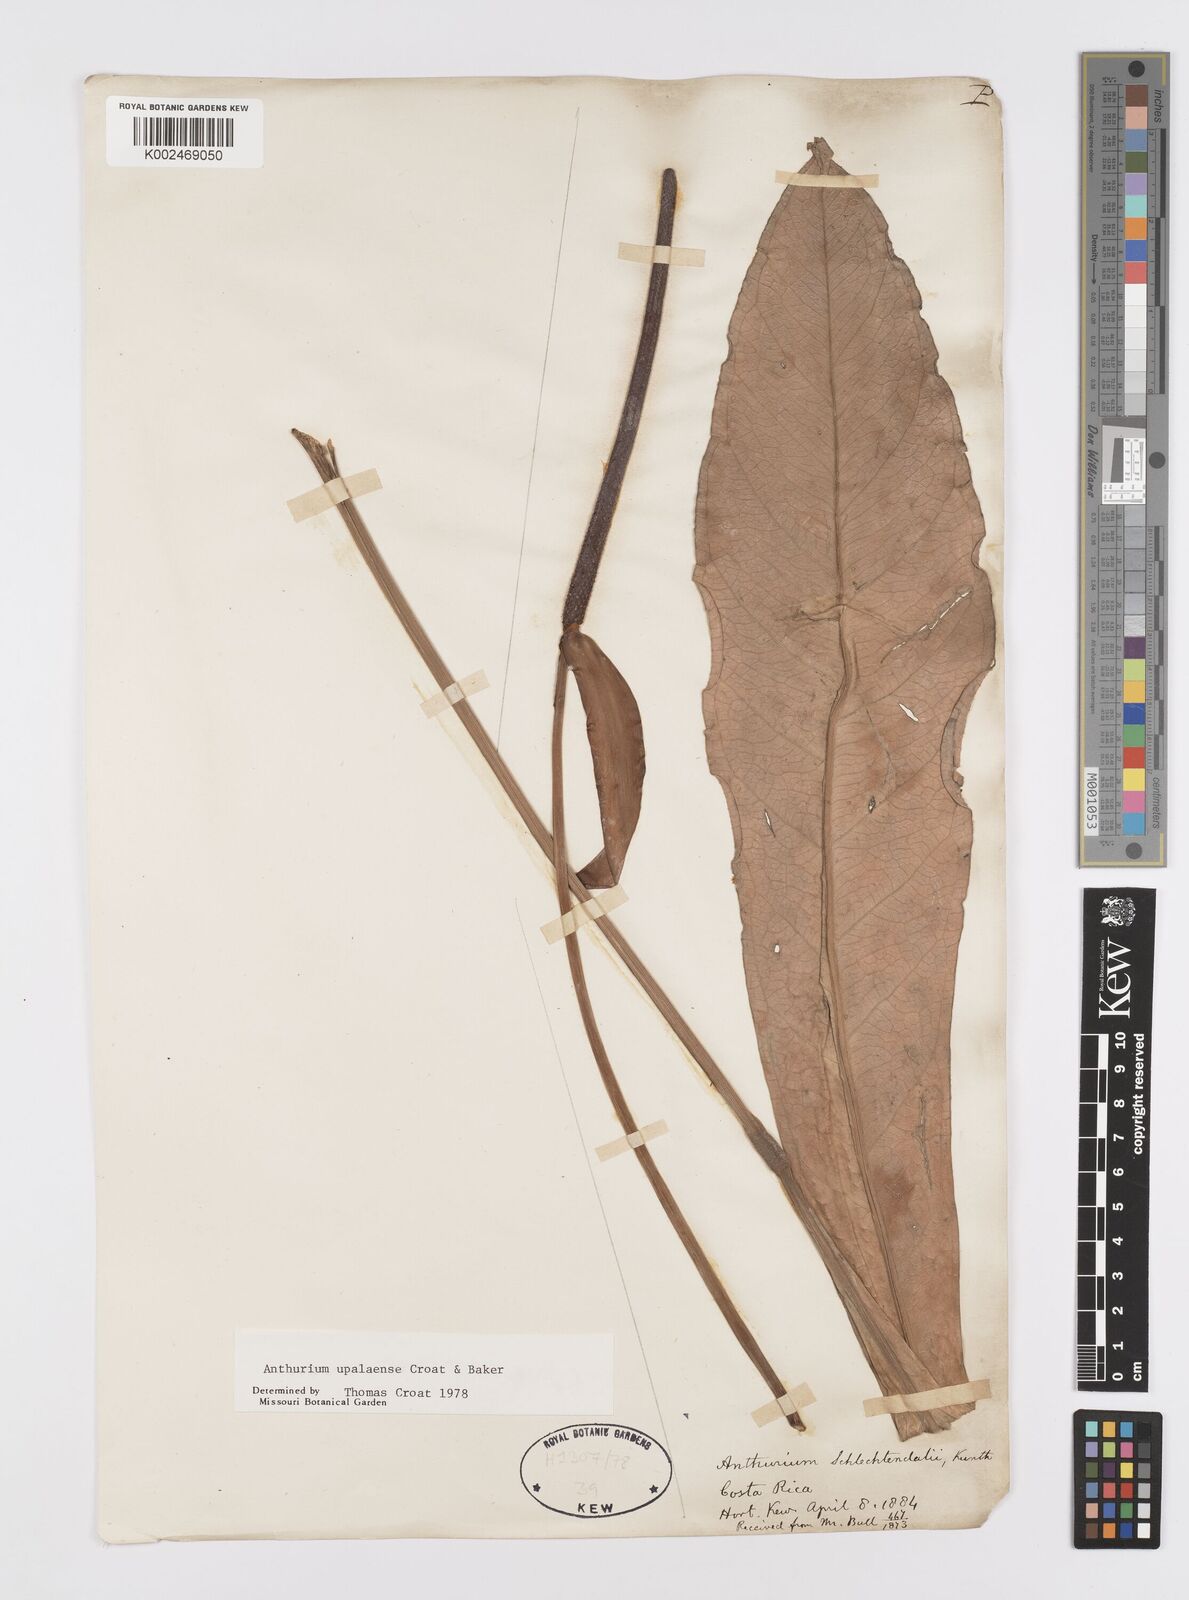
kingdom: Plantae
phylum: Tracheophyta
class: Liliopsida
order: Alismatales
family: Araceae
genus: Anthurium
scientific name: Anthurium upalaense
